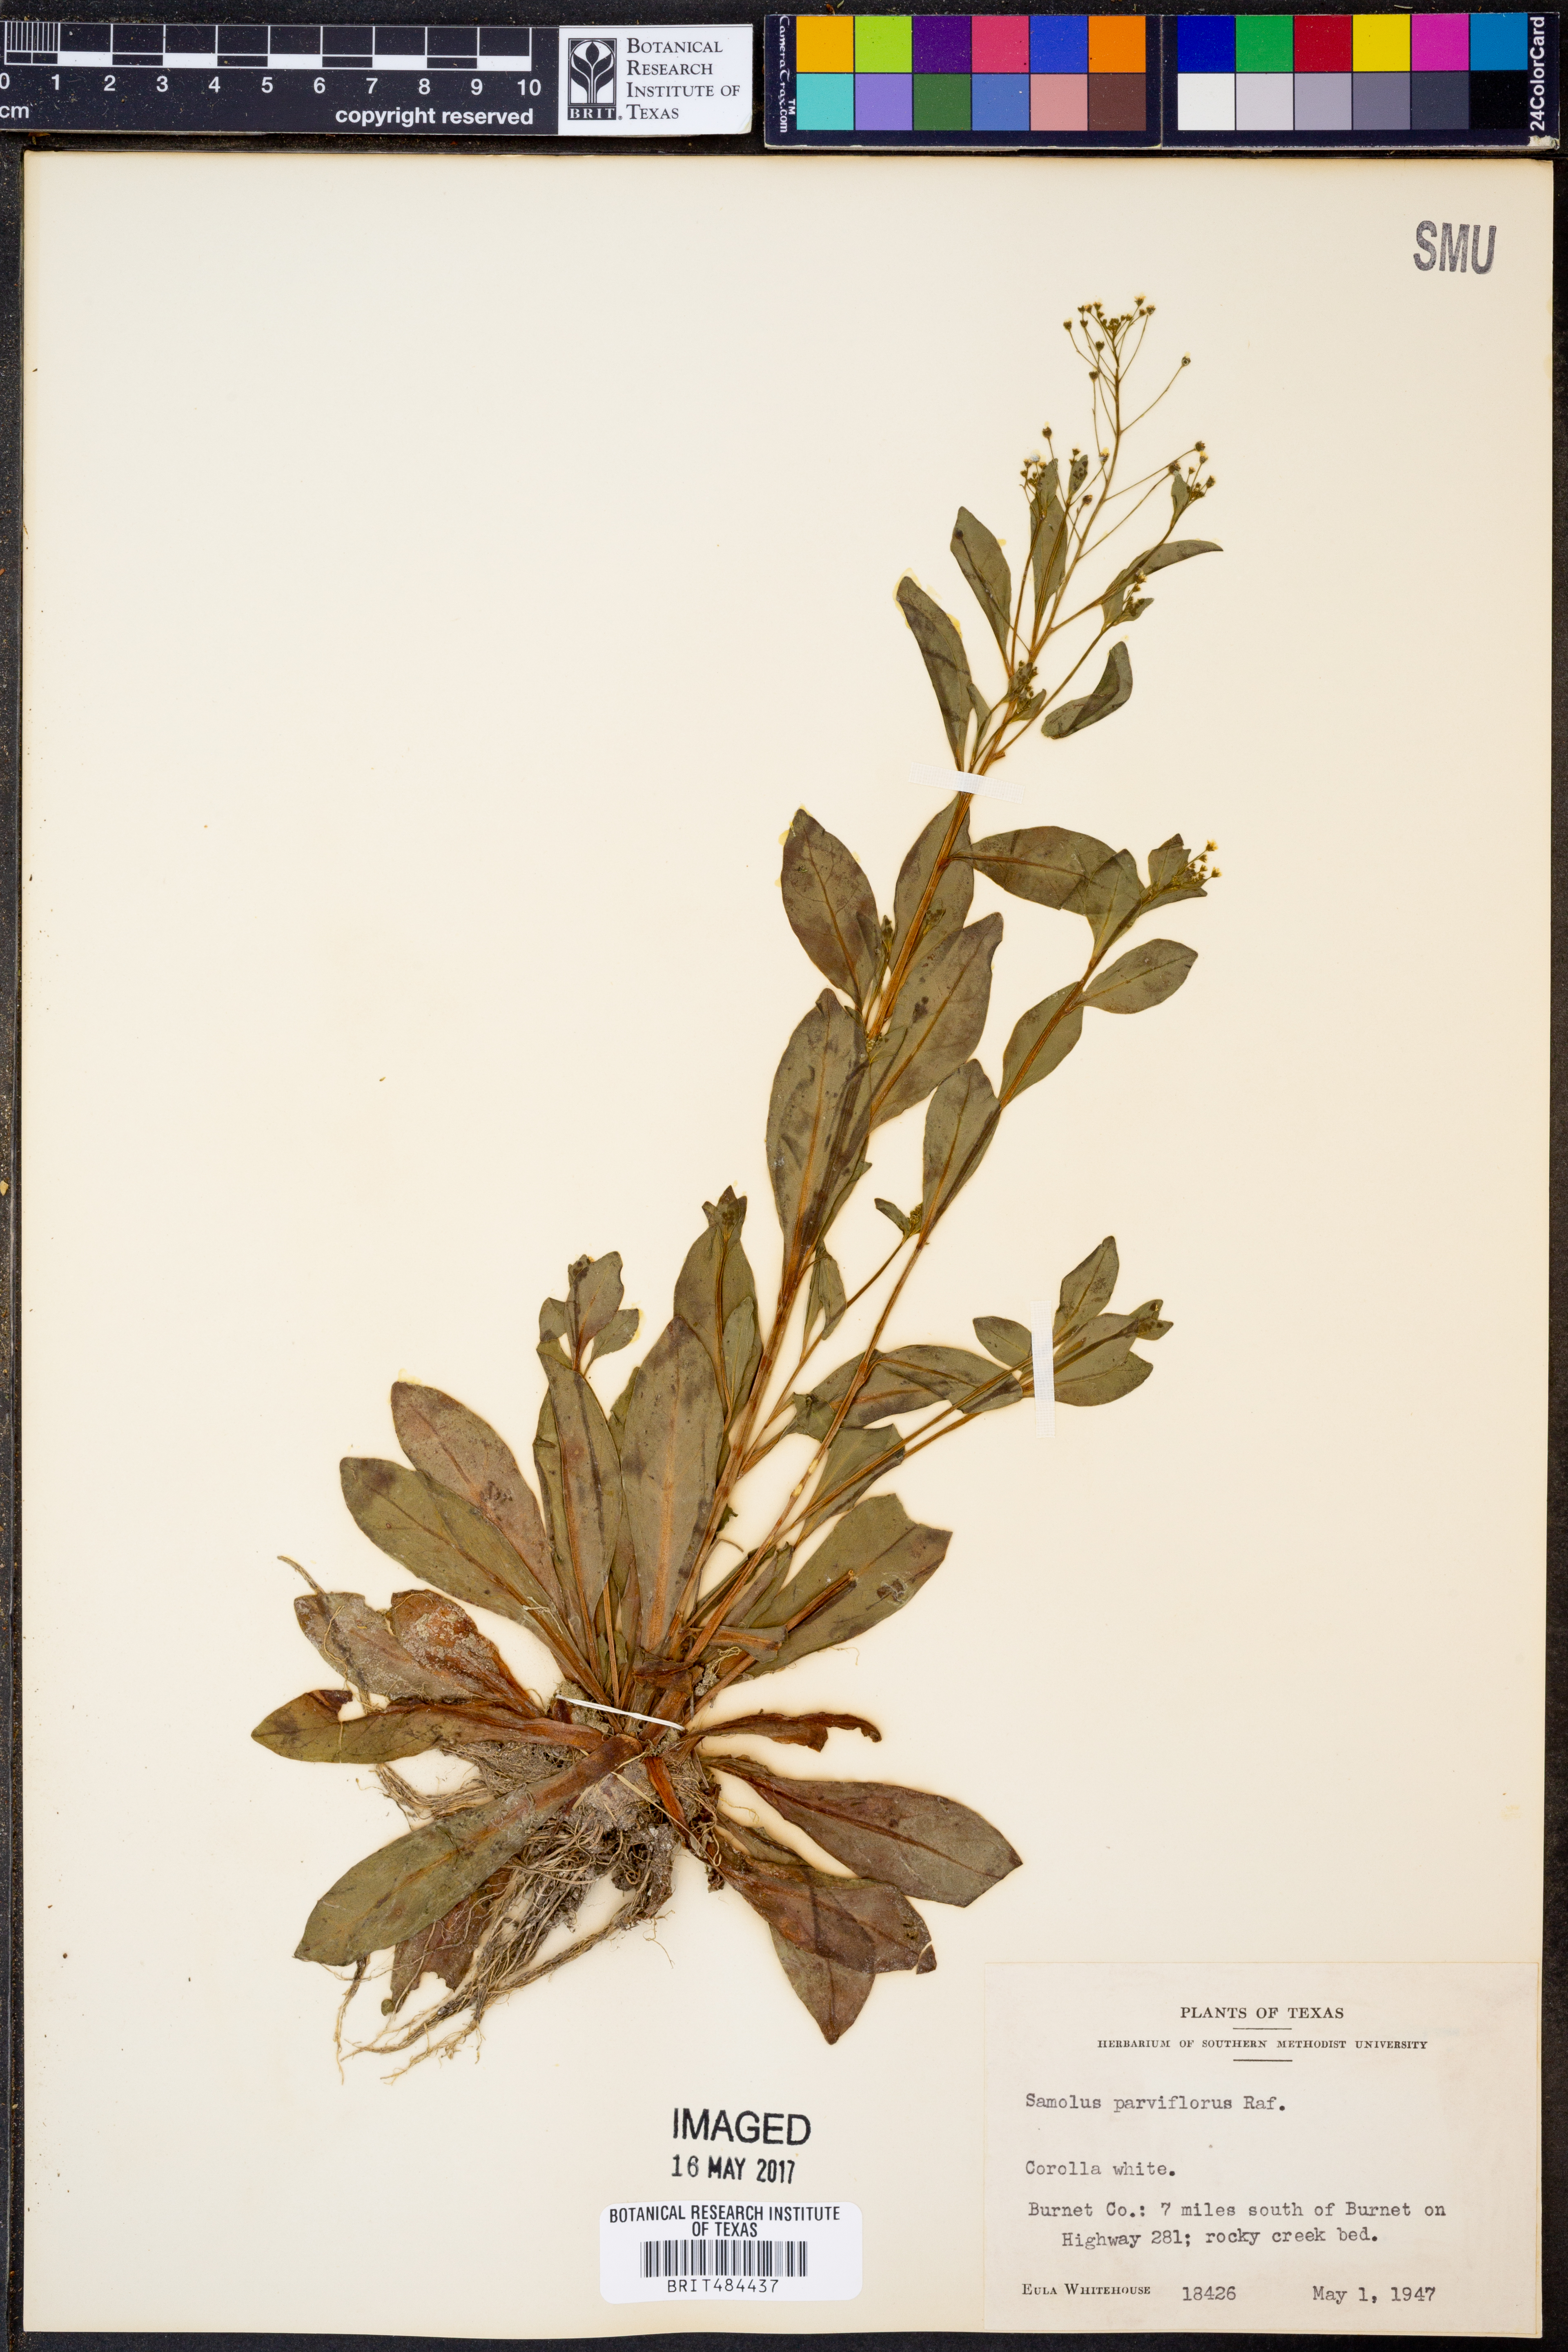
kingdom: Plantae
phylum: Tracheophyta
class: Magnoliopsida
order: Ericales
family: Primulaceae
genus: Samolus
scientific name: Samolus parviflorus
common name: False water pimpernel
